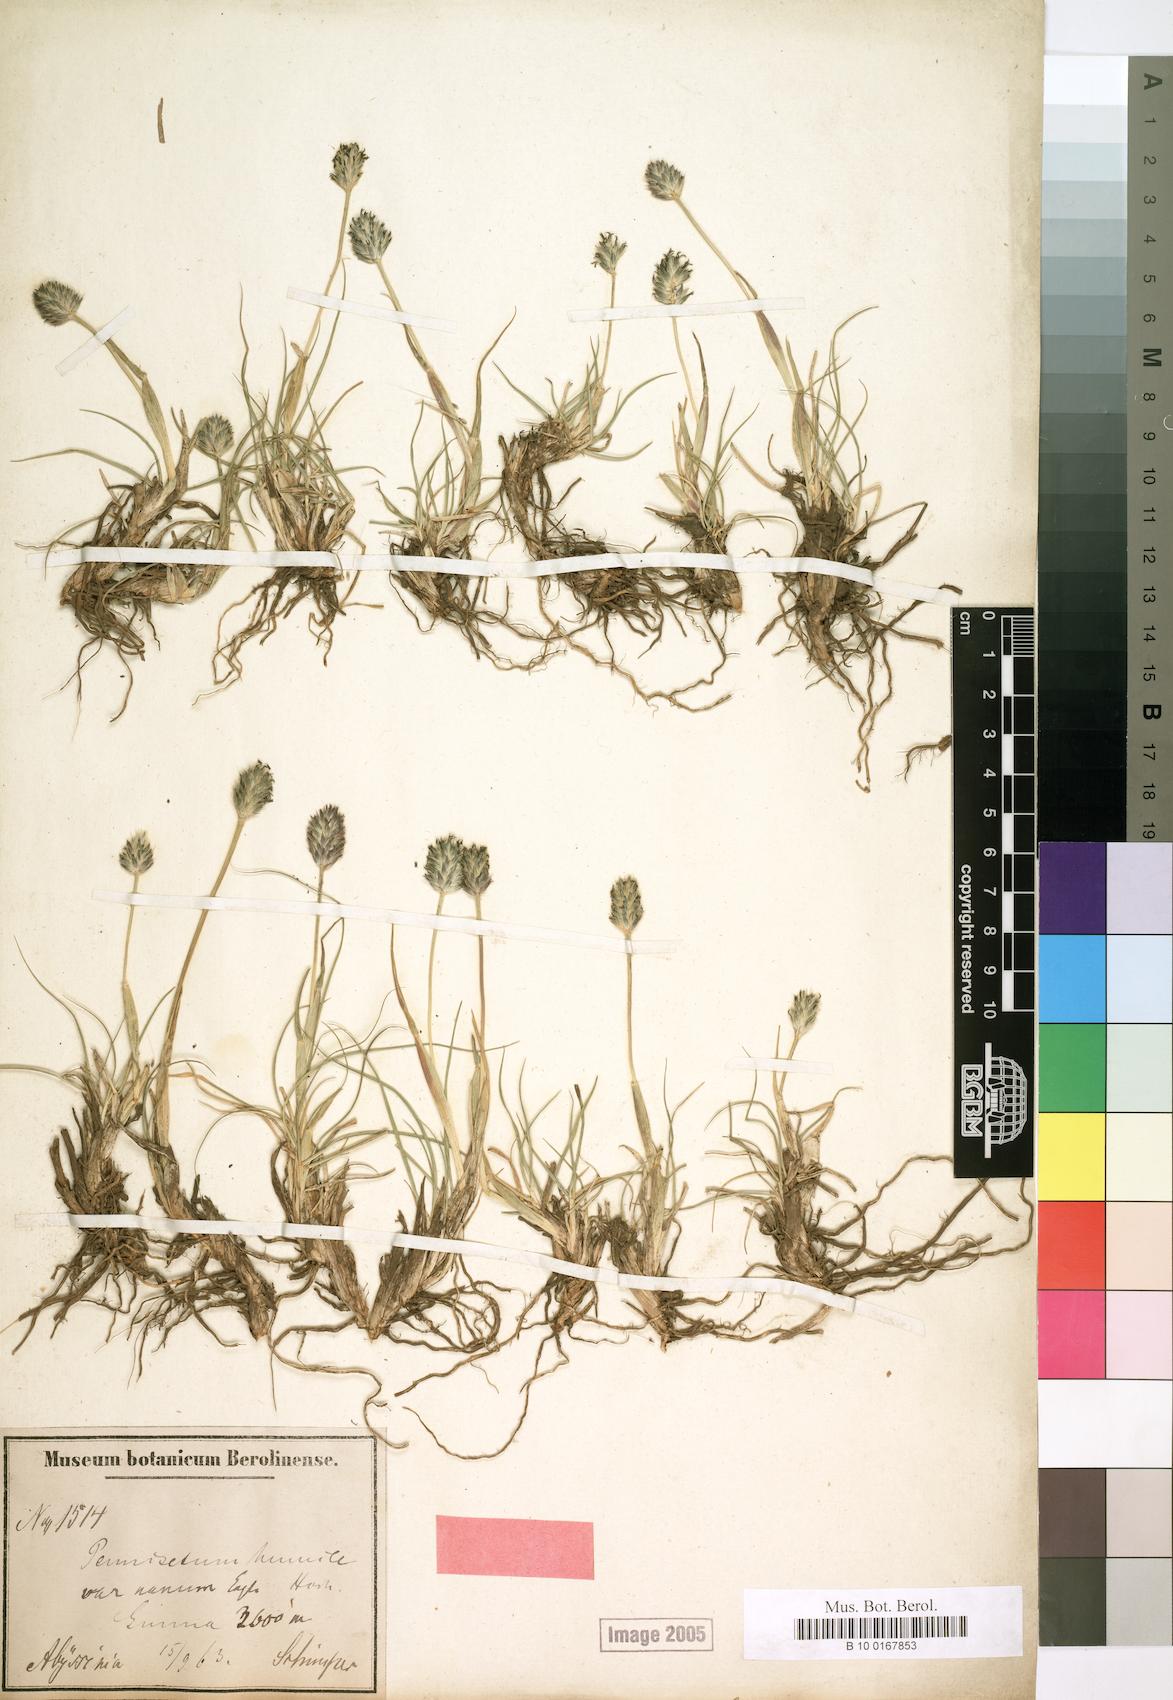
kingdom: Plantae
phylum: Tracheophyta
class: Liliopsida
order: Poales
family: Poaceae
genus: Cenchrus
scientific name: Cenchrus nanus
